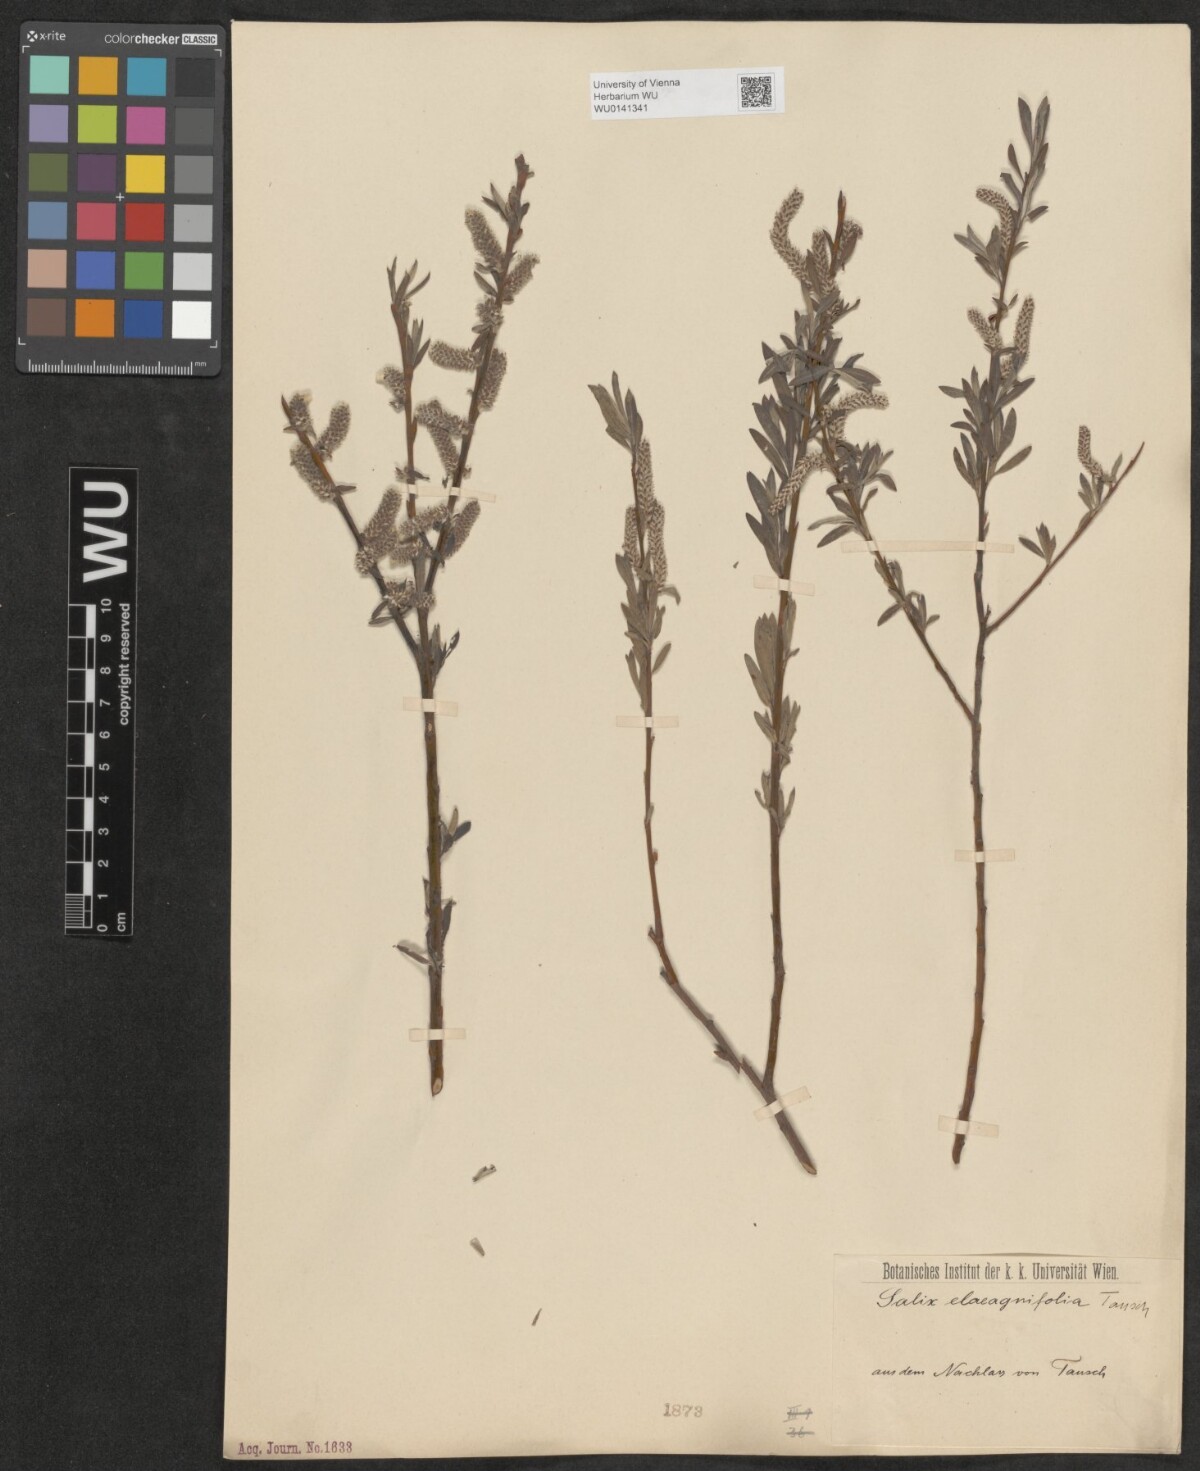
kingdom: Plantae
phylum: Tracheophyta
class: Magnoliopsida
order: Malpighiales
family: Salicaceae
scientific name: Salicaceae
